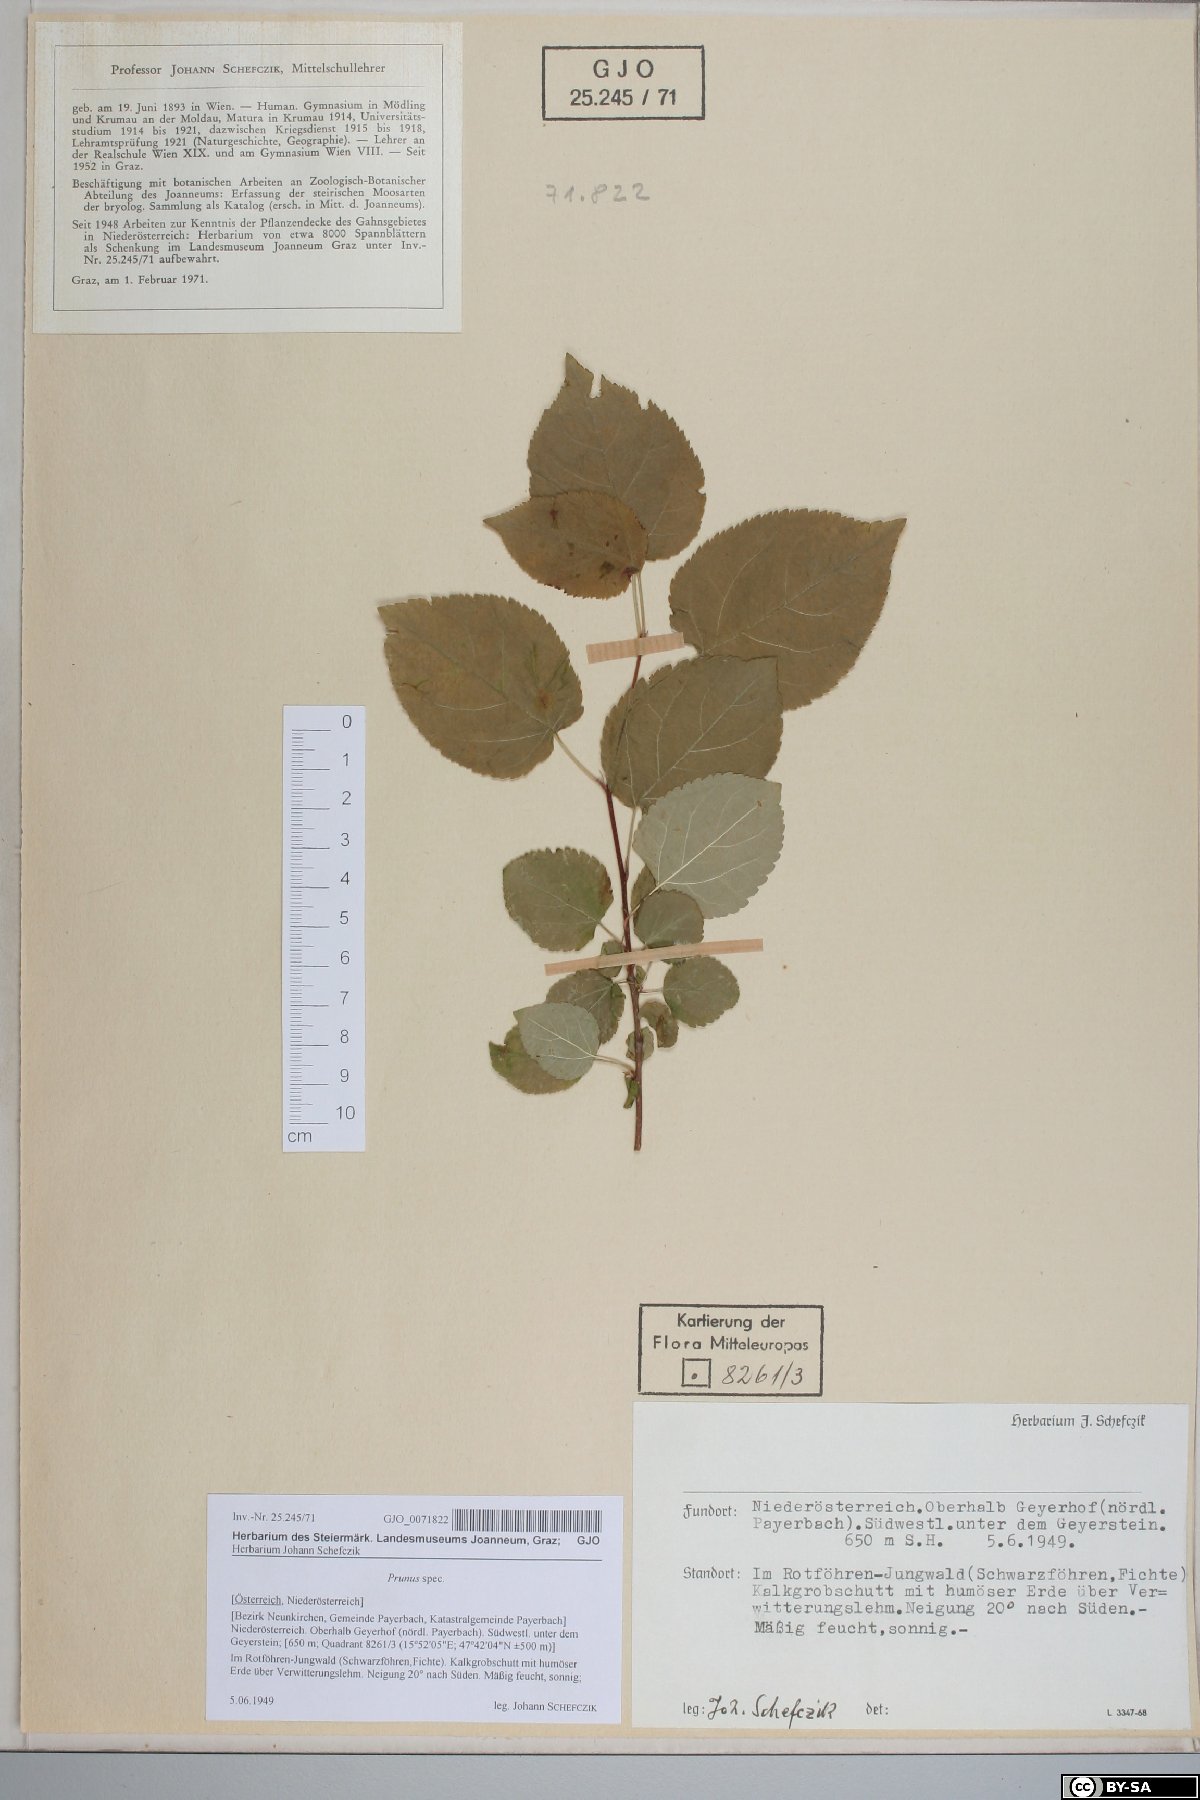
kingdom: Plantae
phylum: Tracheophyta
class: Magnoliopsida
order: Rosales
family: Rosaceae
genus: Prunus
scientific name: Prunus
